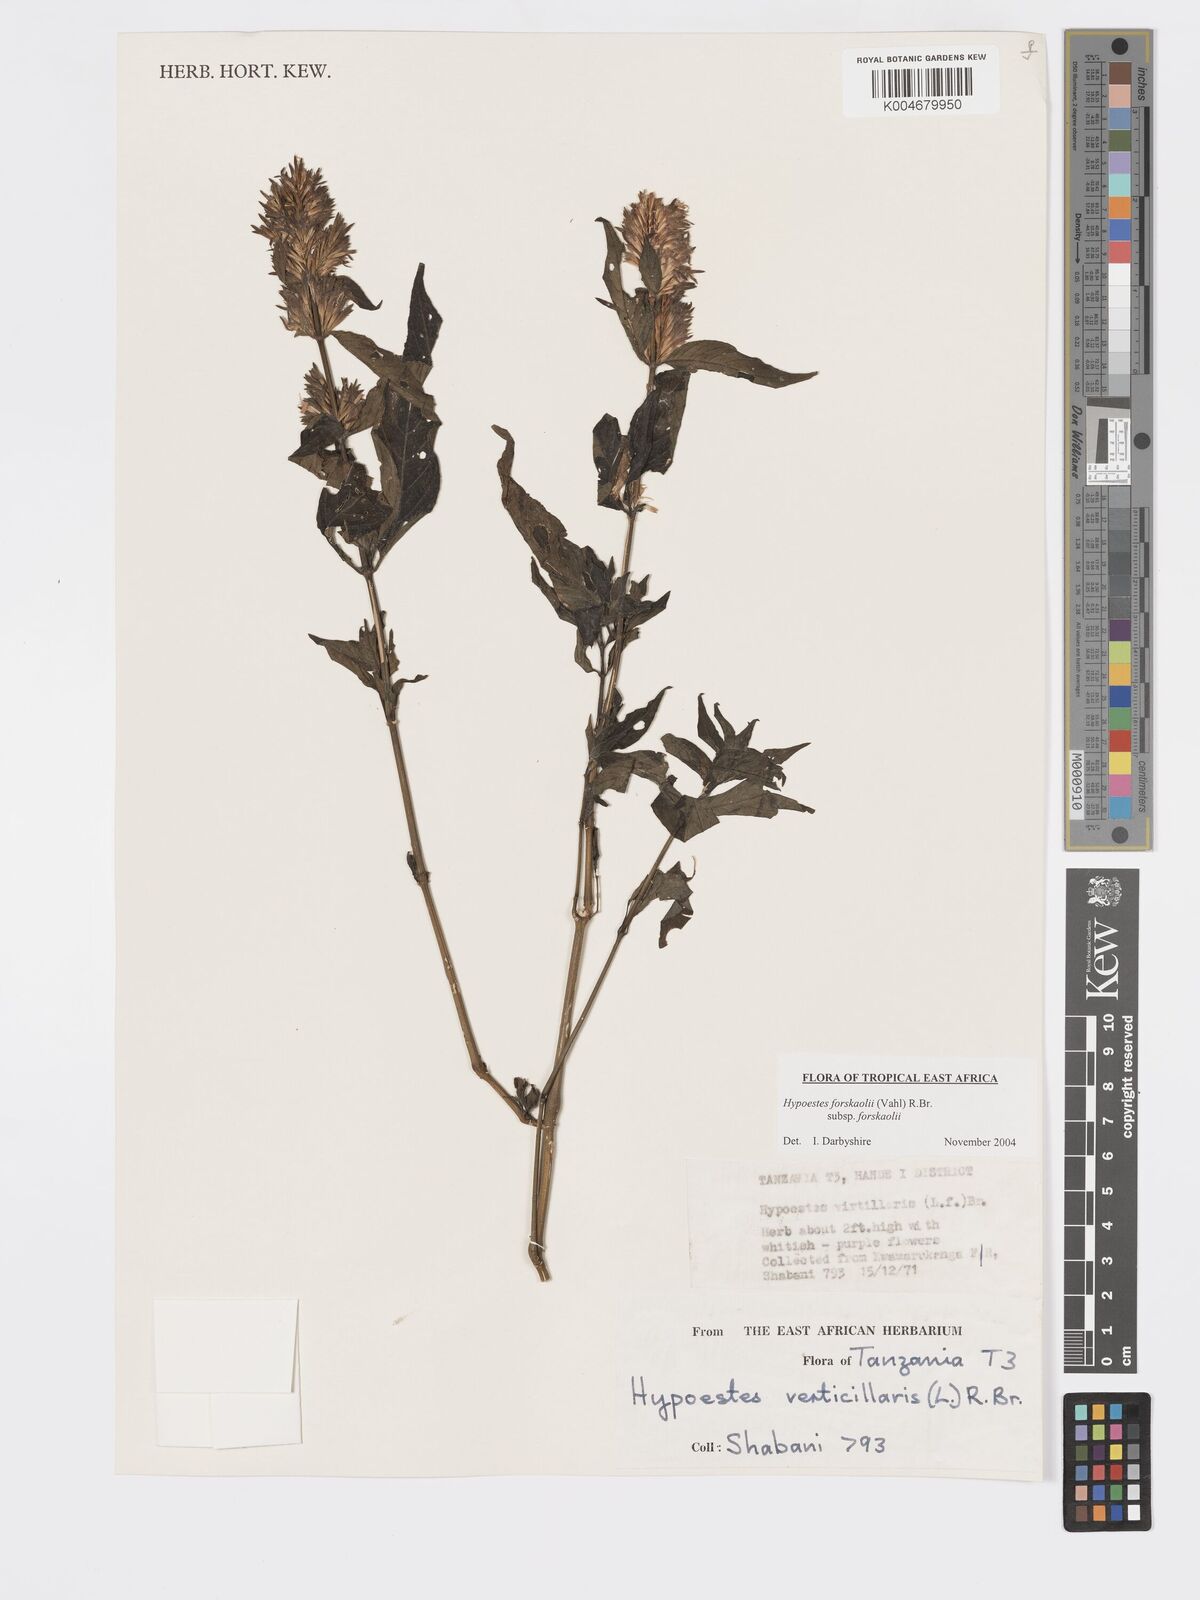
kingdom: Plantae
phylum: Tracheophyta
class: Magnoliopsida
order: Lamiales
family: Acanthaceae
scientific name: Acanthaceae
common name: Acanthaceae
